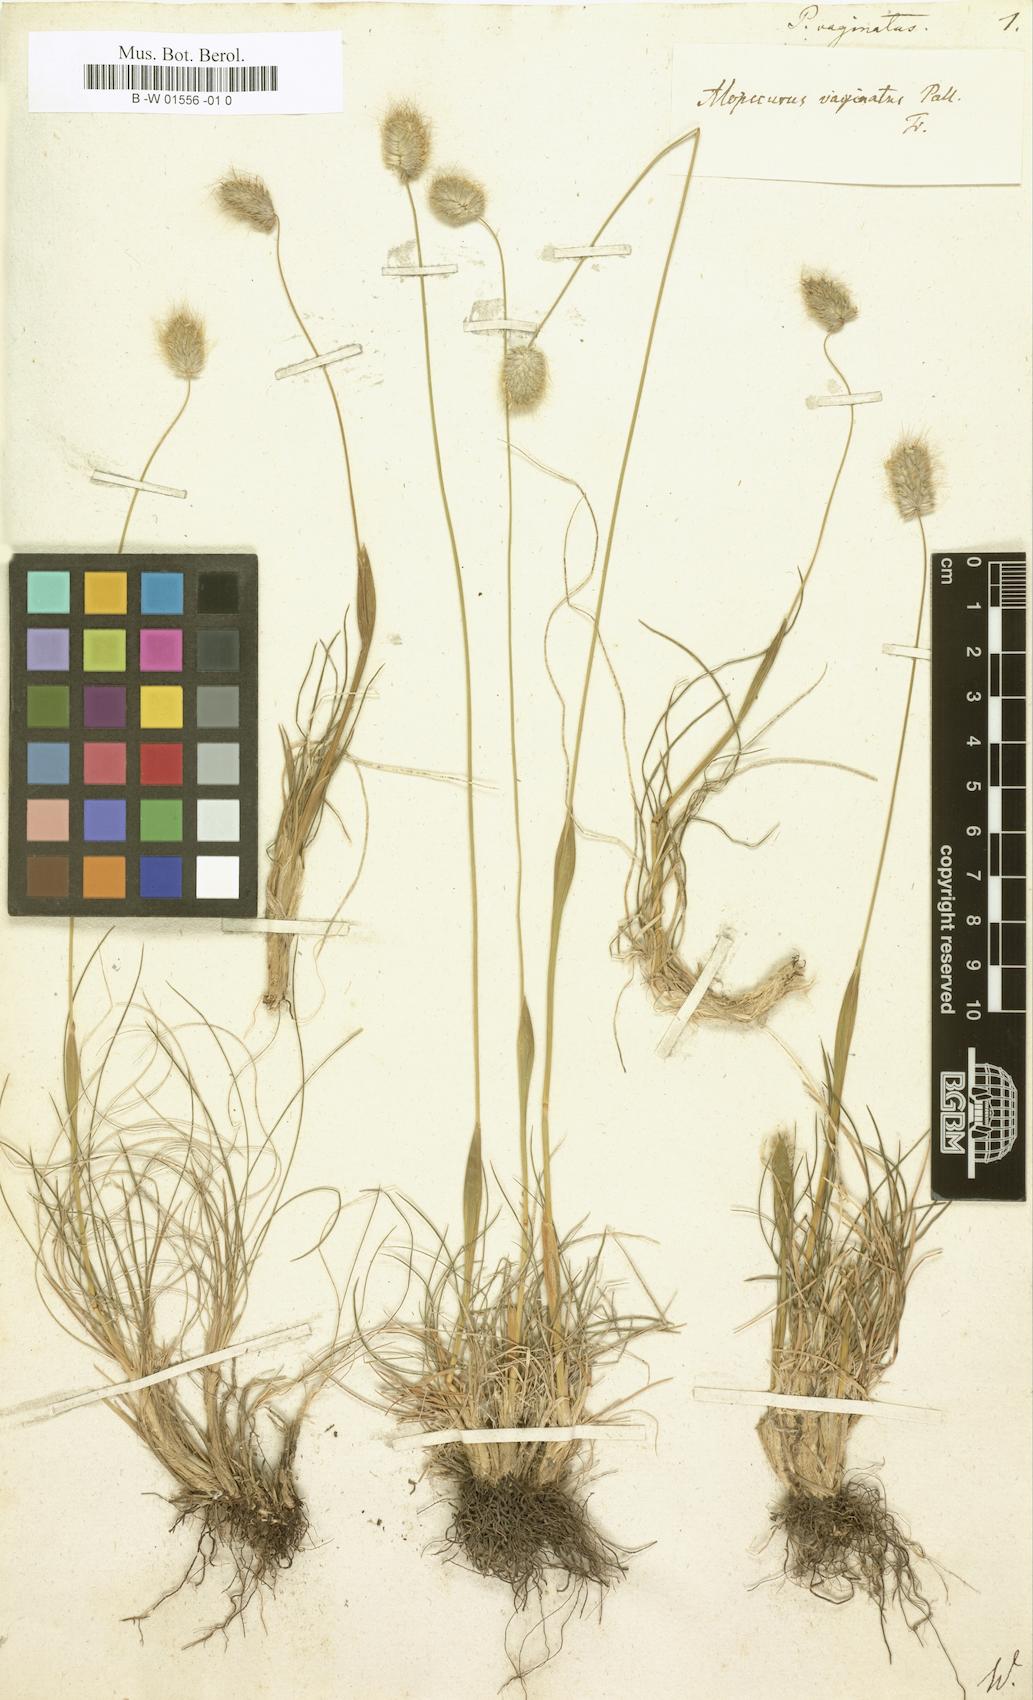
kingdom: Plantae
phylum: Tracheophyta
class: Liliopsida
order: Poales
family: Poaceae
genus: Alopecurus
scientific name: Alopecurus vaginatus
